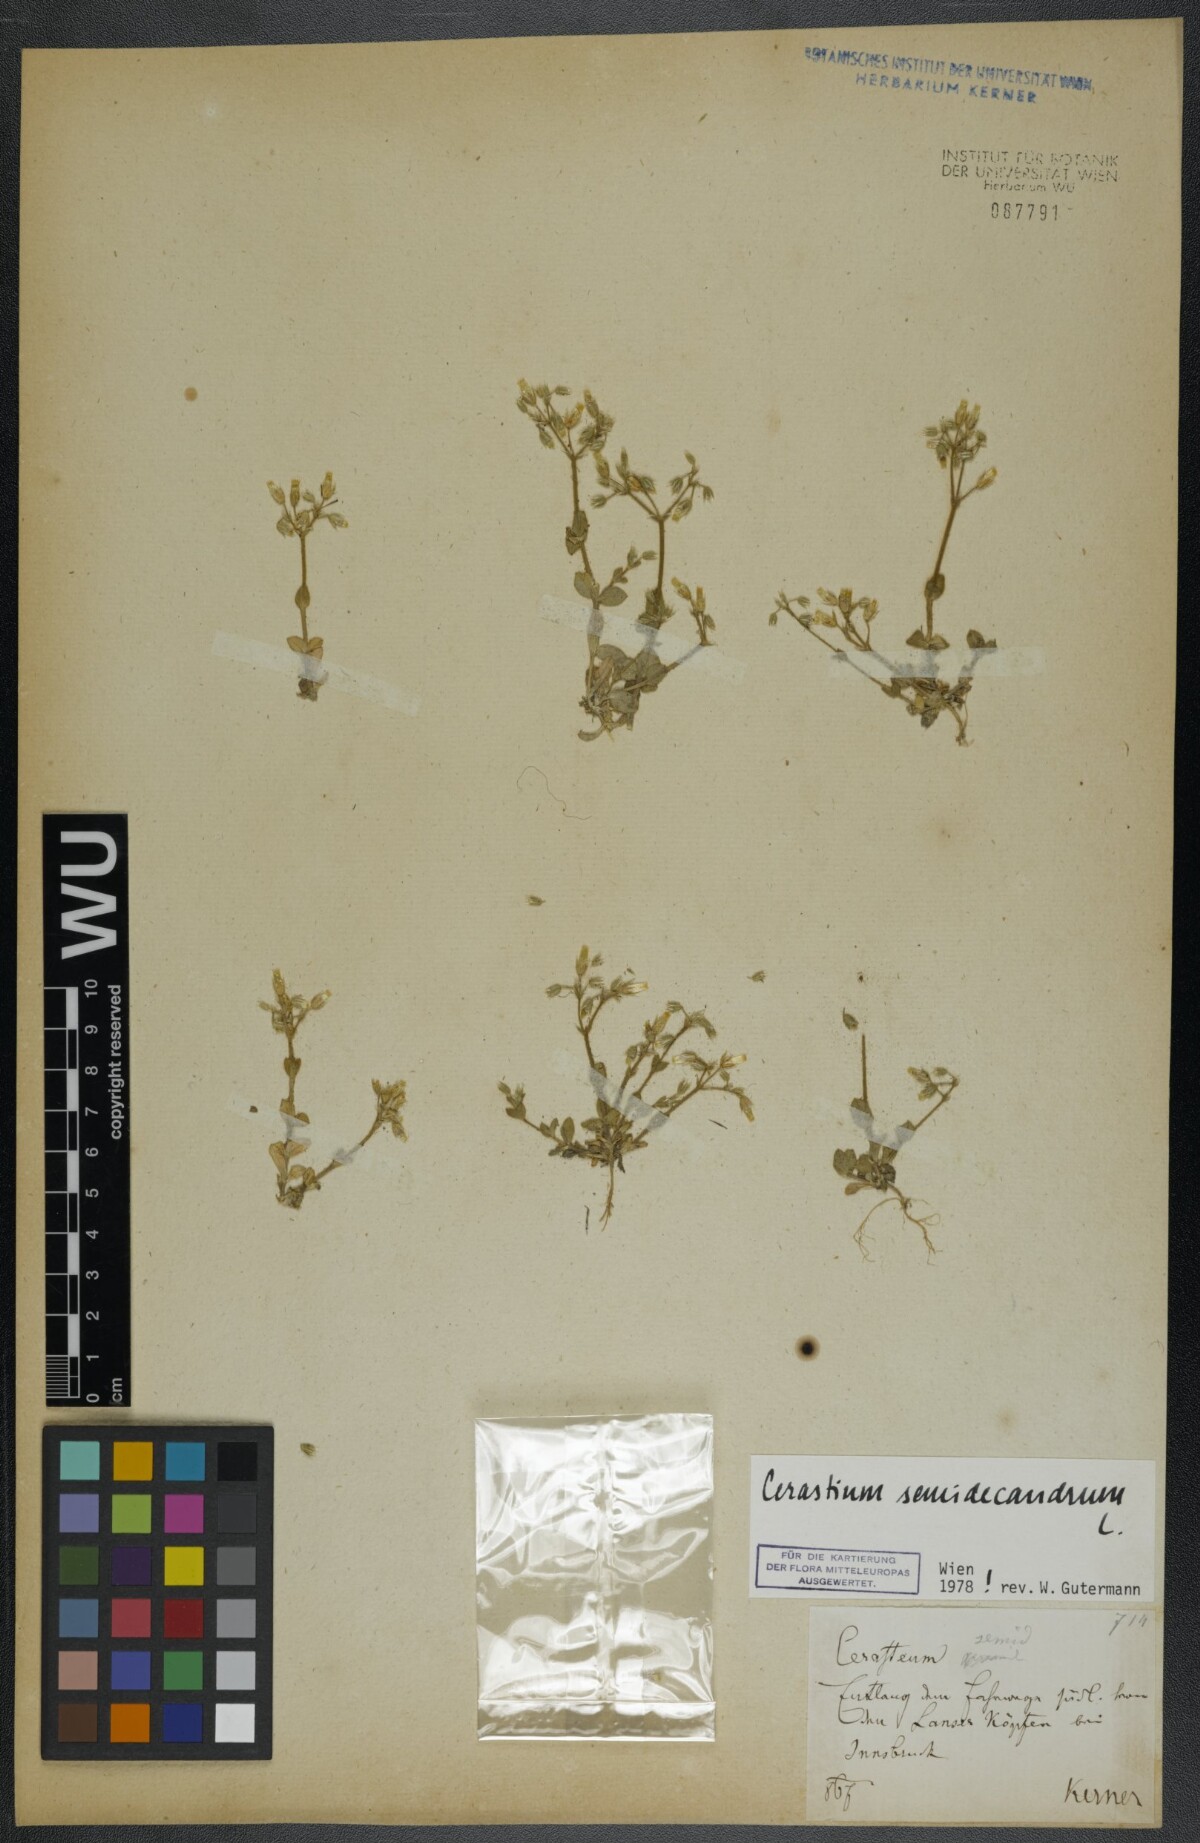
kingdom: Plantae
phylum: Tracheophyta
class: Magnoliopsida
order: Caryophyllales
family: Caryophyllaceae
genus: Cerastium
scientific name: Cerastium semidecandrum
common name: Little mouse-ear
